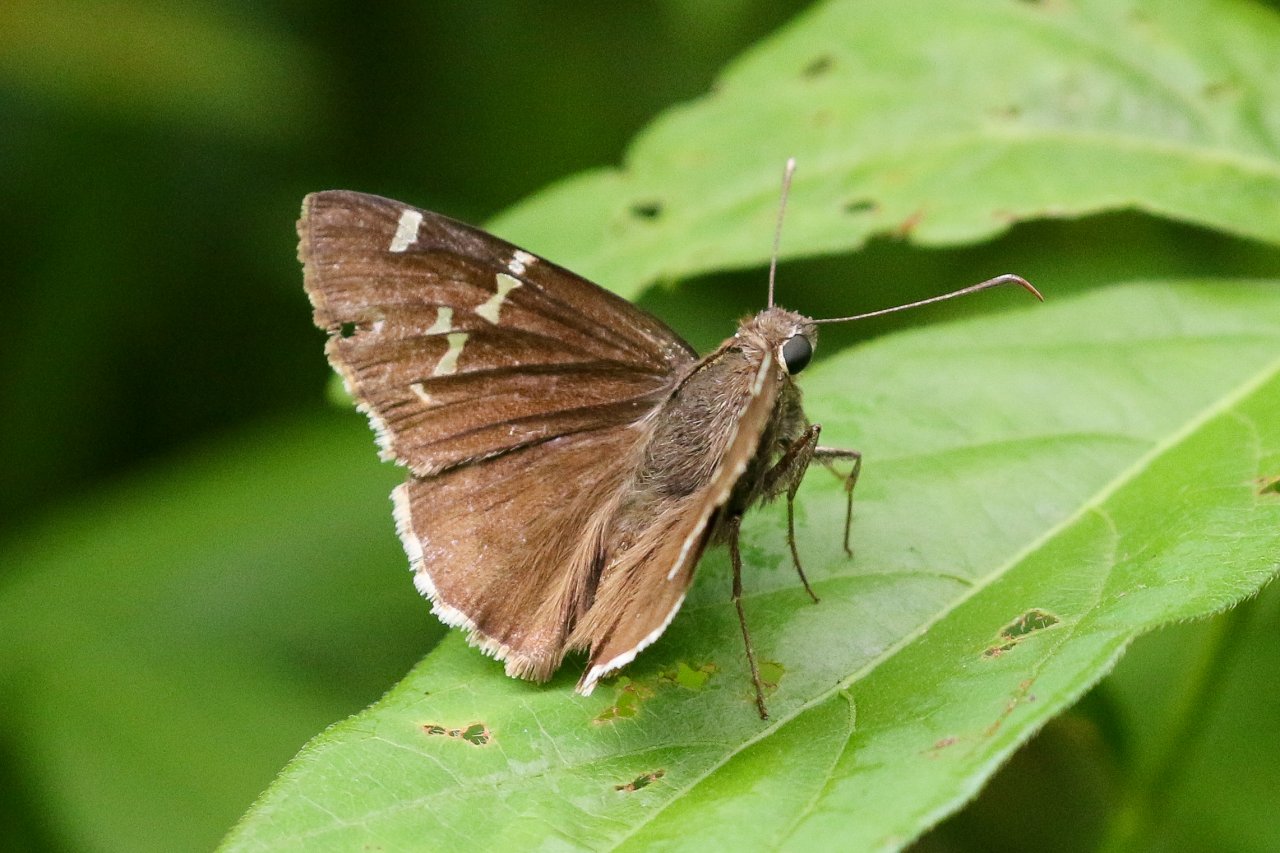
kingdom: Animalia
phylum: Arthropoda
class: Insecta
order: Lepidoptera
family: Hesperiidae
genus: Autochton
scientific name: Autochton
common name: Southern Cloudywing
